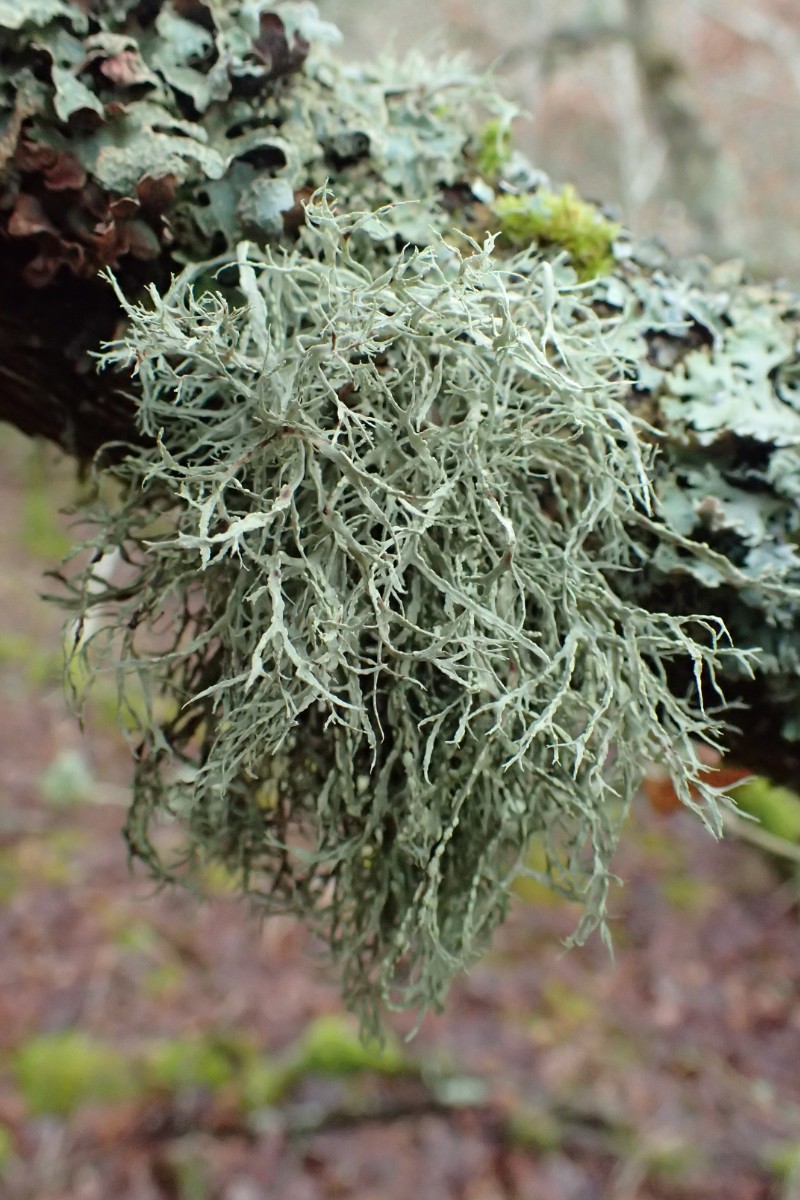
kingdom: Fungi
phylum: Ascomycota
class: Lecanoromycetes
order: Lecanorales
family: Ramalinaceae
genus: Ramalina
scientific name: Ramalina farinacea
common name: melet grenlav
